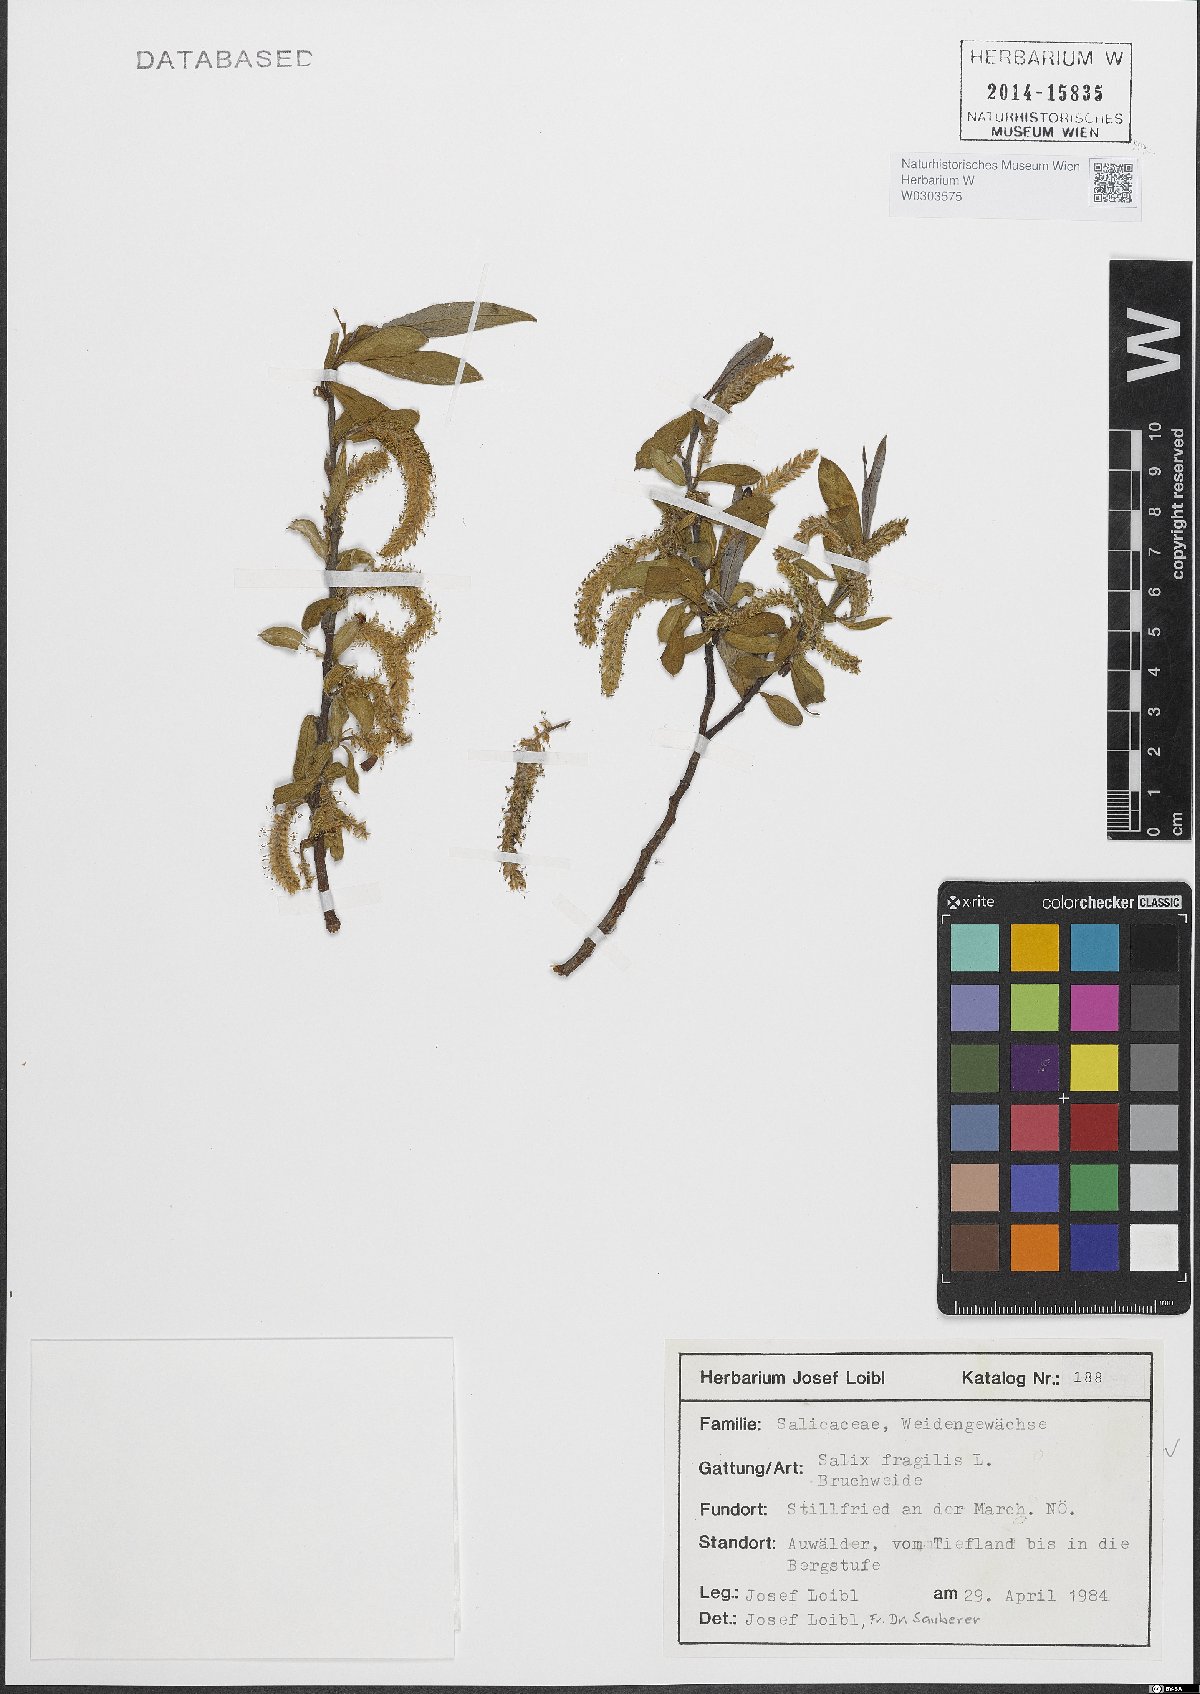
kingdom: Plantae
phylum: Tracheophyta
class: Magnoliopsida
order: Malpighiales
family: Salicaceae
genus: Salix
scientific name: Salix fragilis
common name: Crack willow
